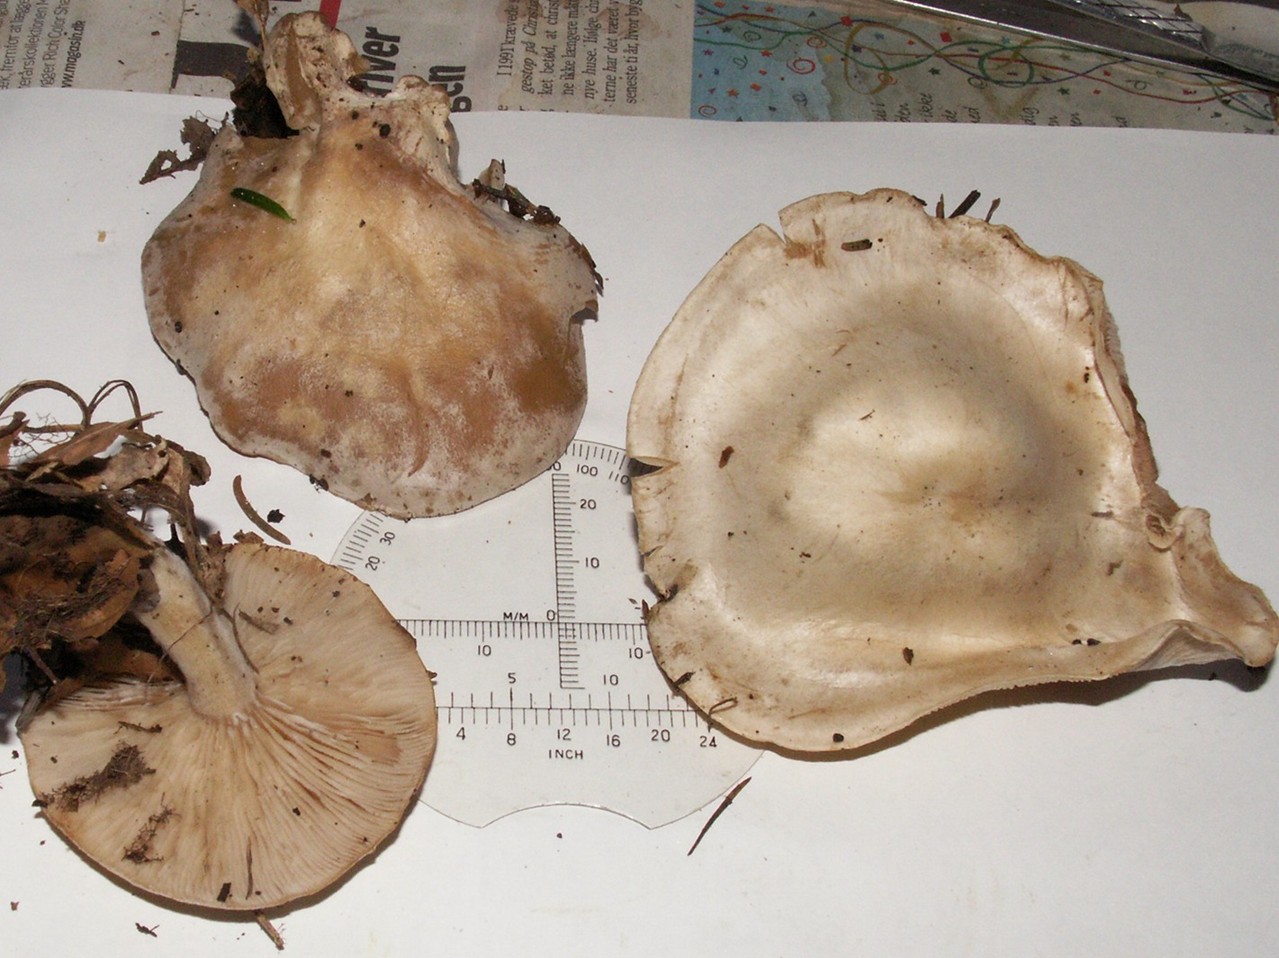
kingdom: Fungi
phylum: Basidiomycota
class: Agaricomycetes
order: Agaricales
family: Tricholomataceae
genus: Clitocybe
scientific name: Clitocybe phyllophila
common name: løv-tragthat
